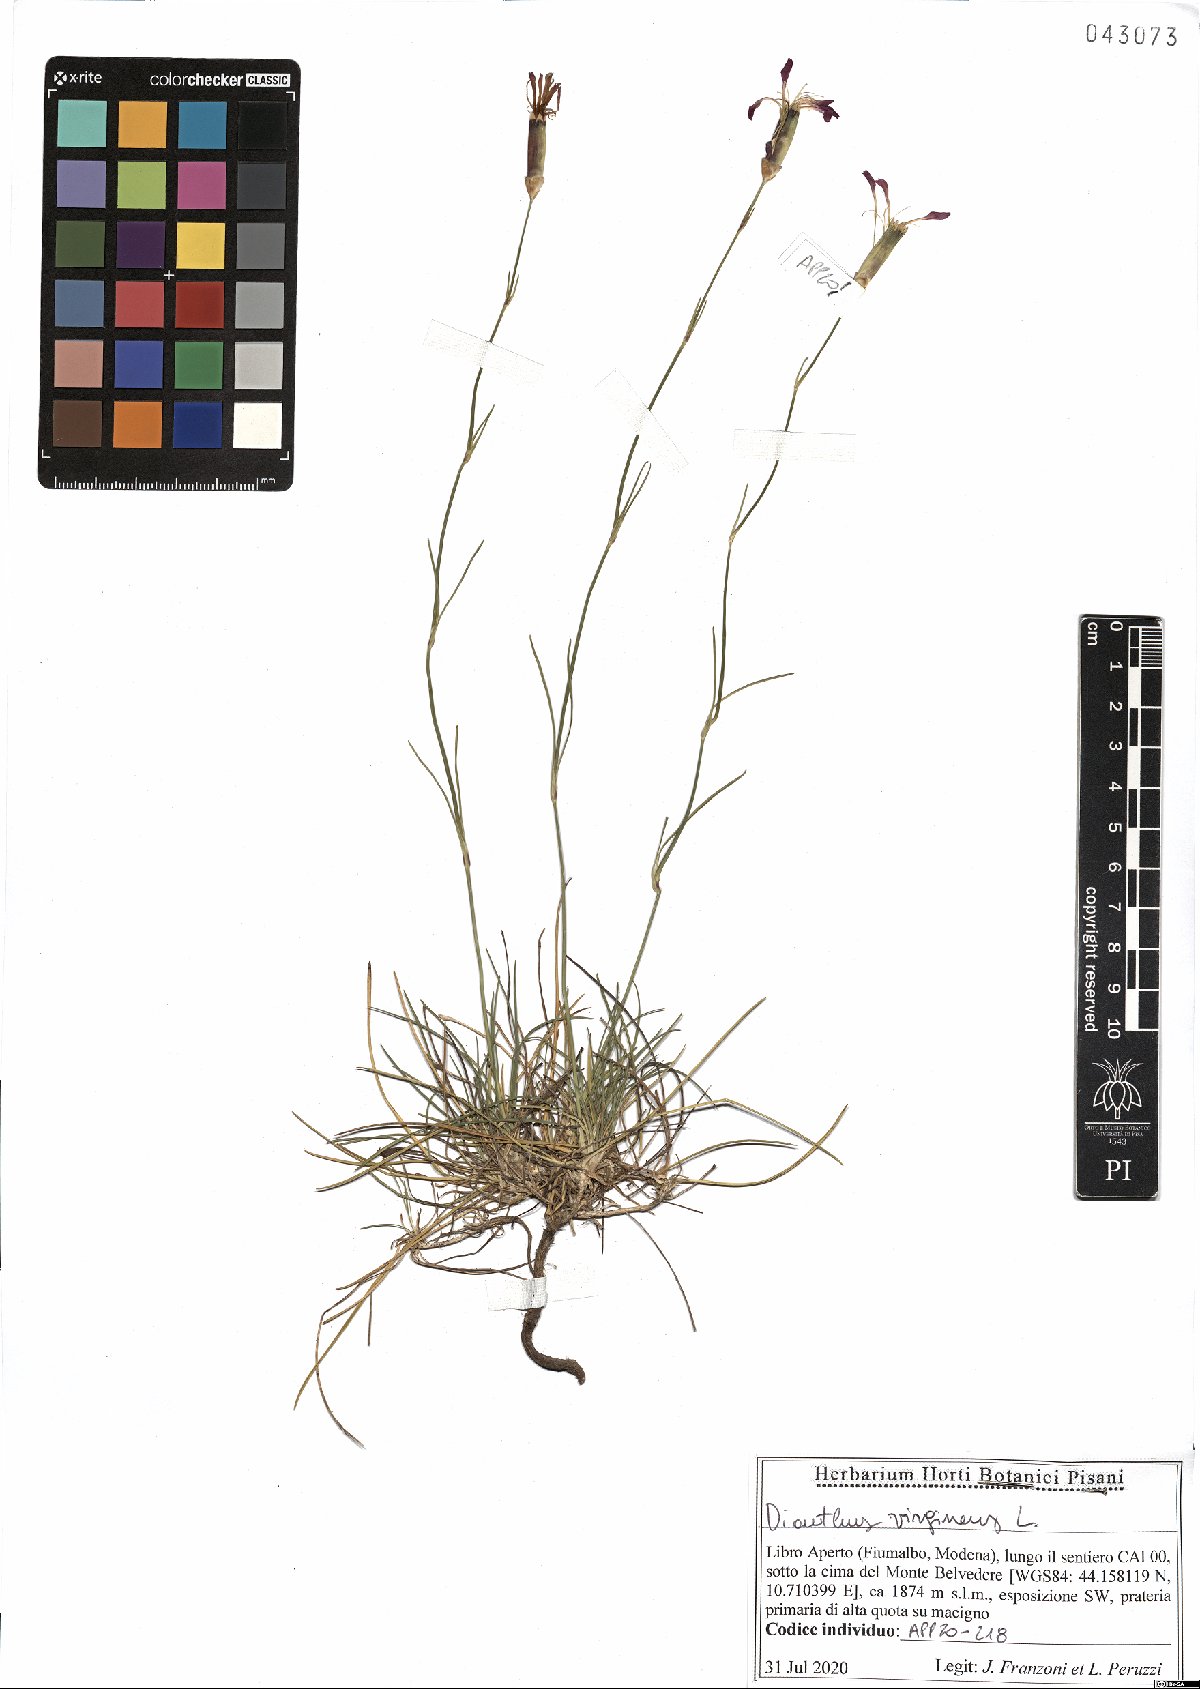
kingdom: Plantae
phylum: Tracheophyta
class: Magnoliopsida
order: Caryophyllales
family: Caryophyllaceae
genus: Dianthus
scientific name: Dianthus virgineus
